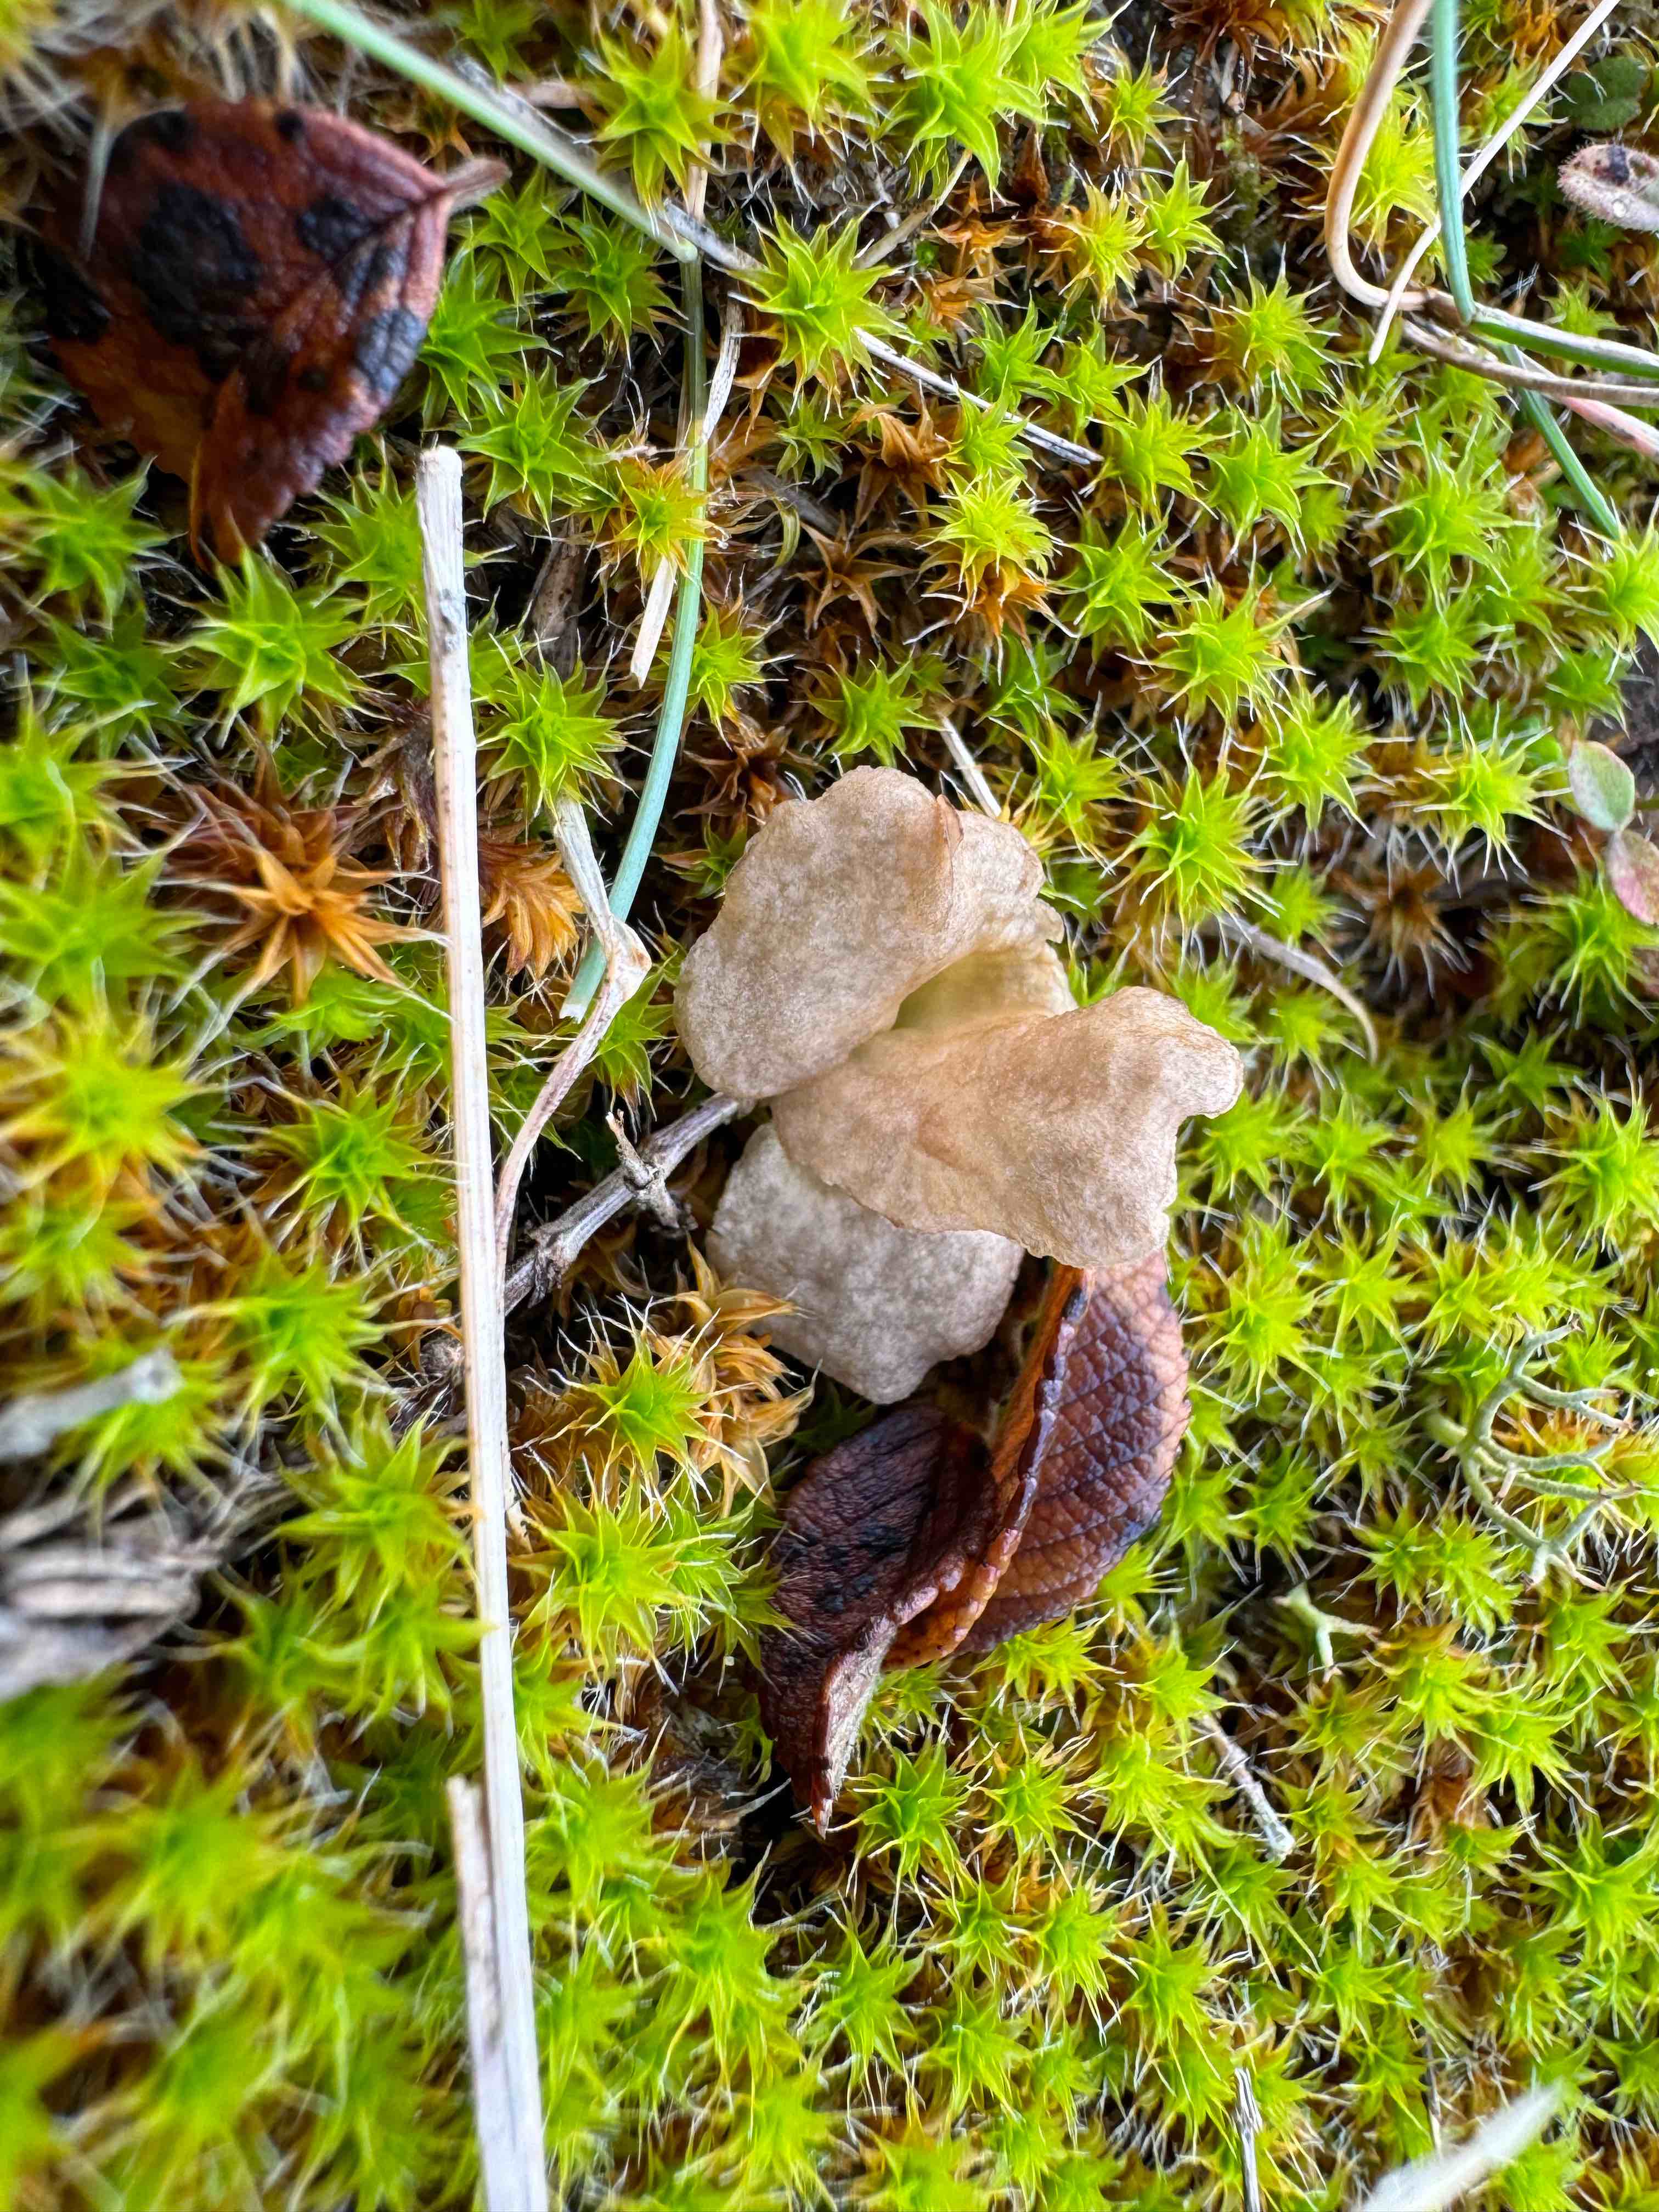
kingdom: Fungi
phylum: Basidiomycota
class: Agaricomycetes
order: Agaricales
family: Hygrophoraceae
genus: Arrhenia
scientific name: Arrhenia spathulata
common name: skæv fontænehat
